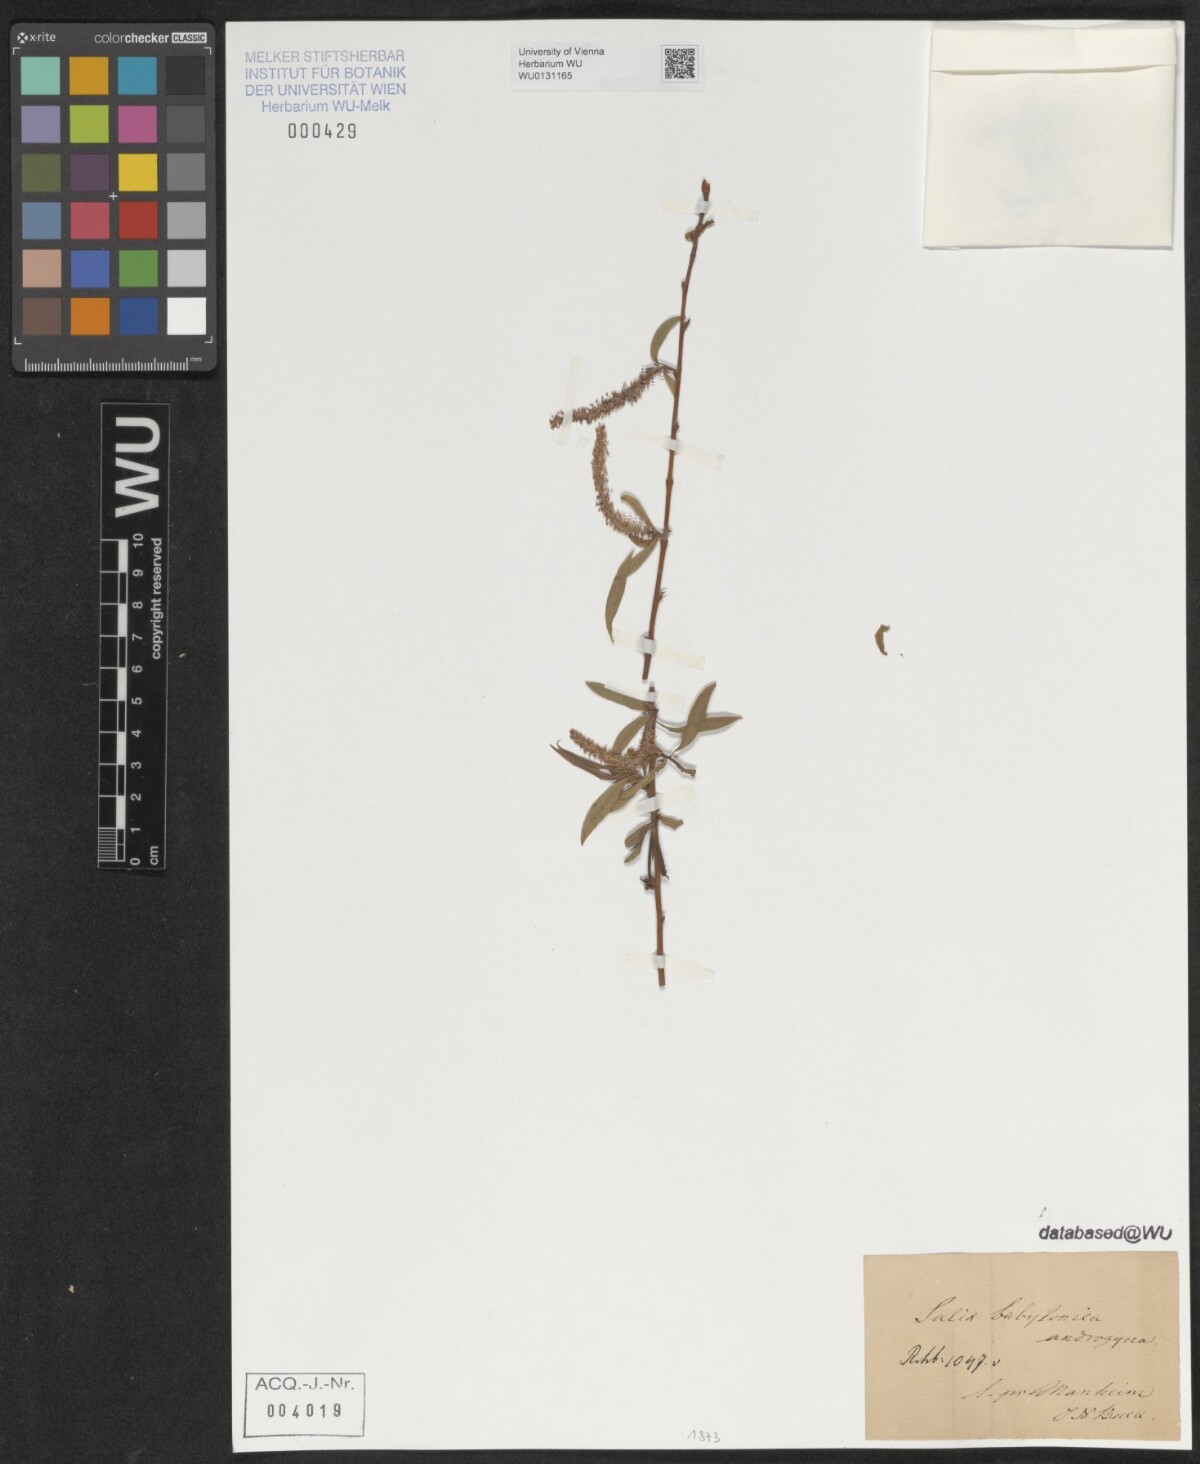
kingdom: Plantae
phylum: Tracheophyta
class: Magnoliopsida
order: Malpighiales
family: Salicaceae
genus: Salix
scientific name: Salix babylonica
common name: Weeping willow
